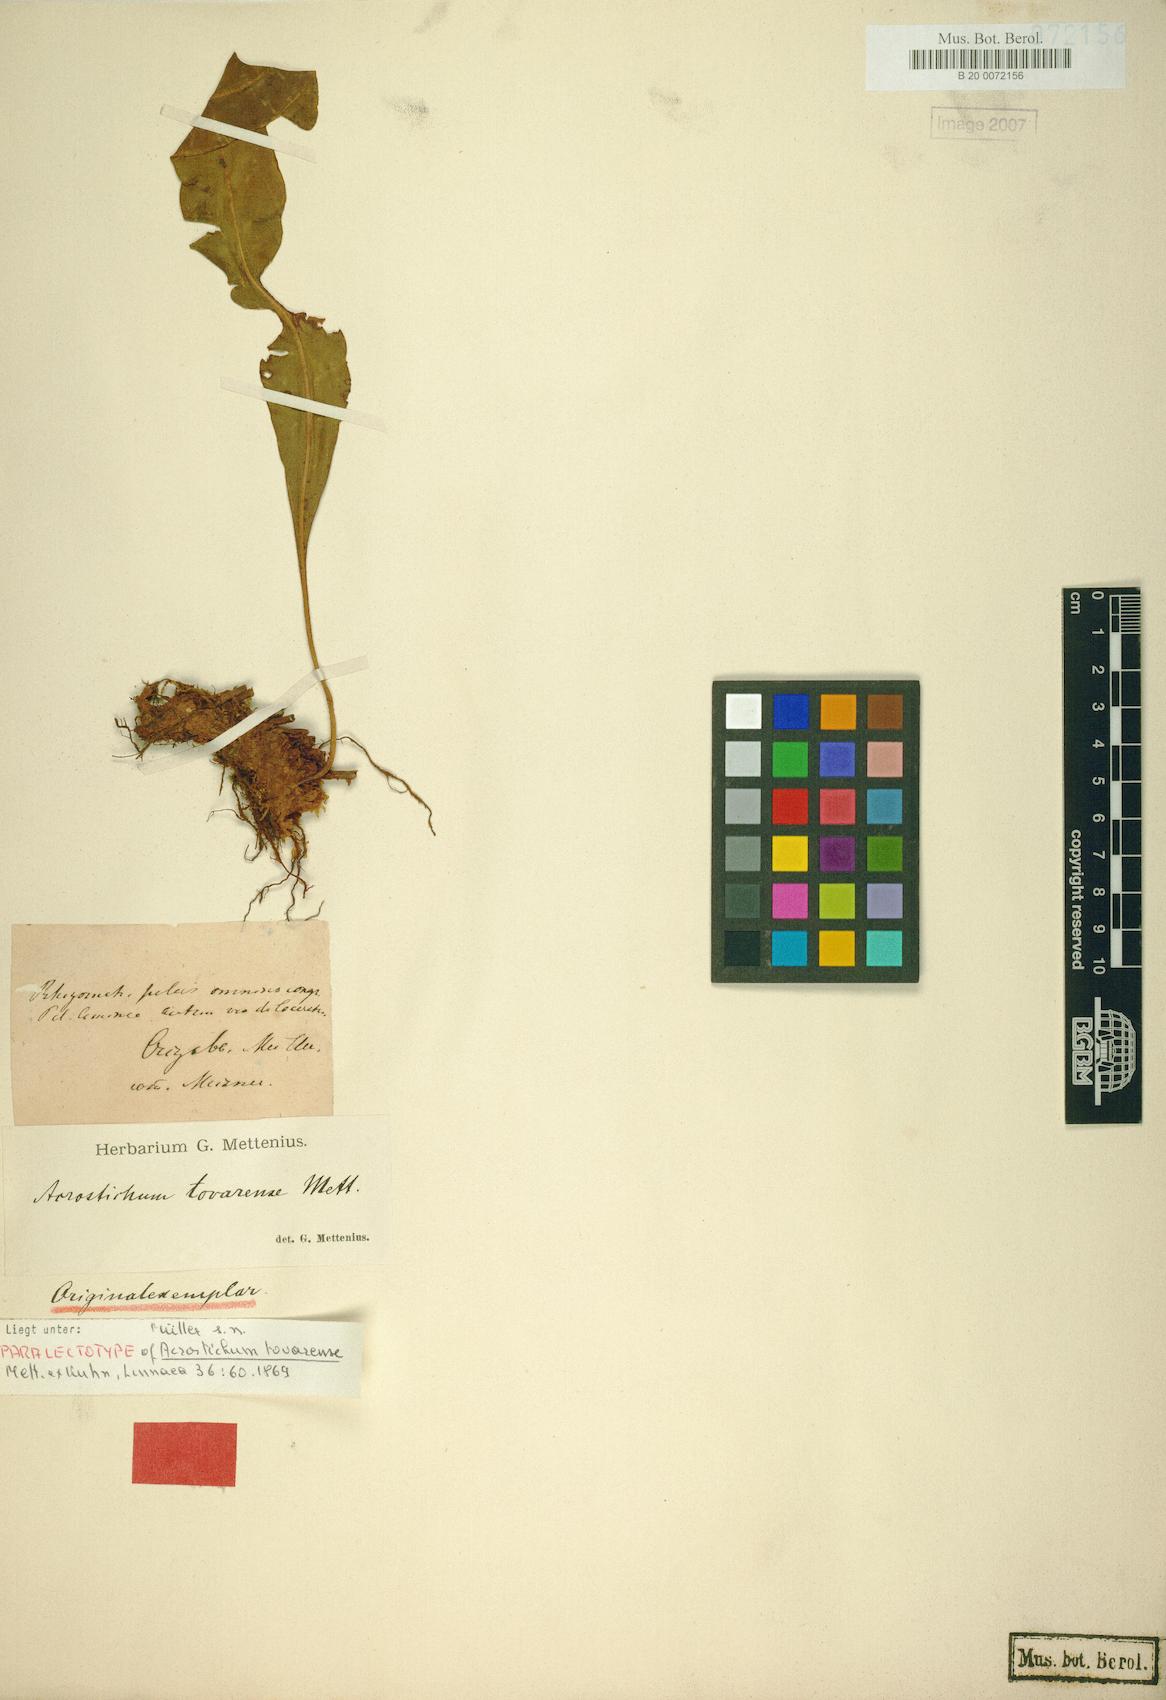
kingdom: Plantae
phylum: Tracheophyta
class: Polypodiopsida
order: Polypodiales
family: Pteridaceae
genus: Acrostichum
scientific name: Acrostichum Elaphoglossum tovarense
